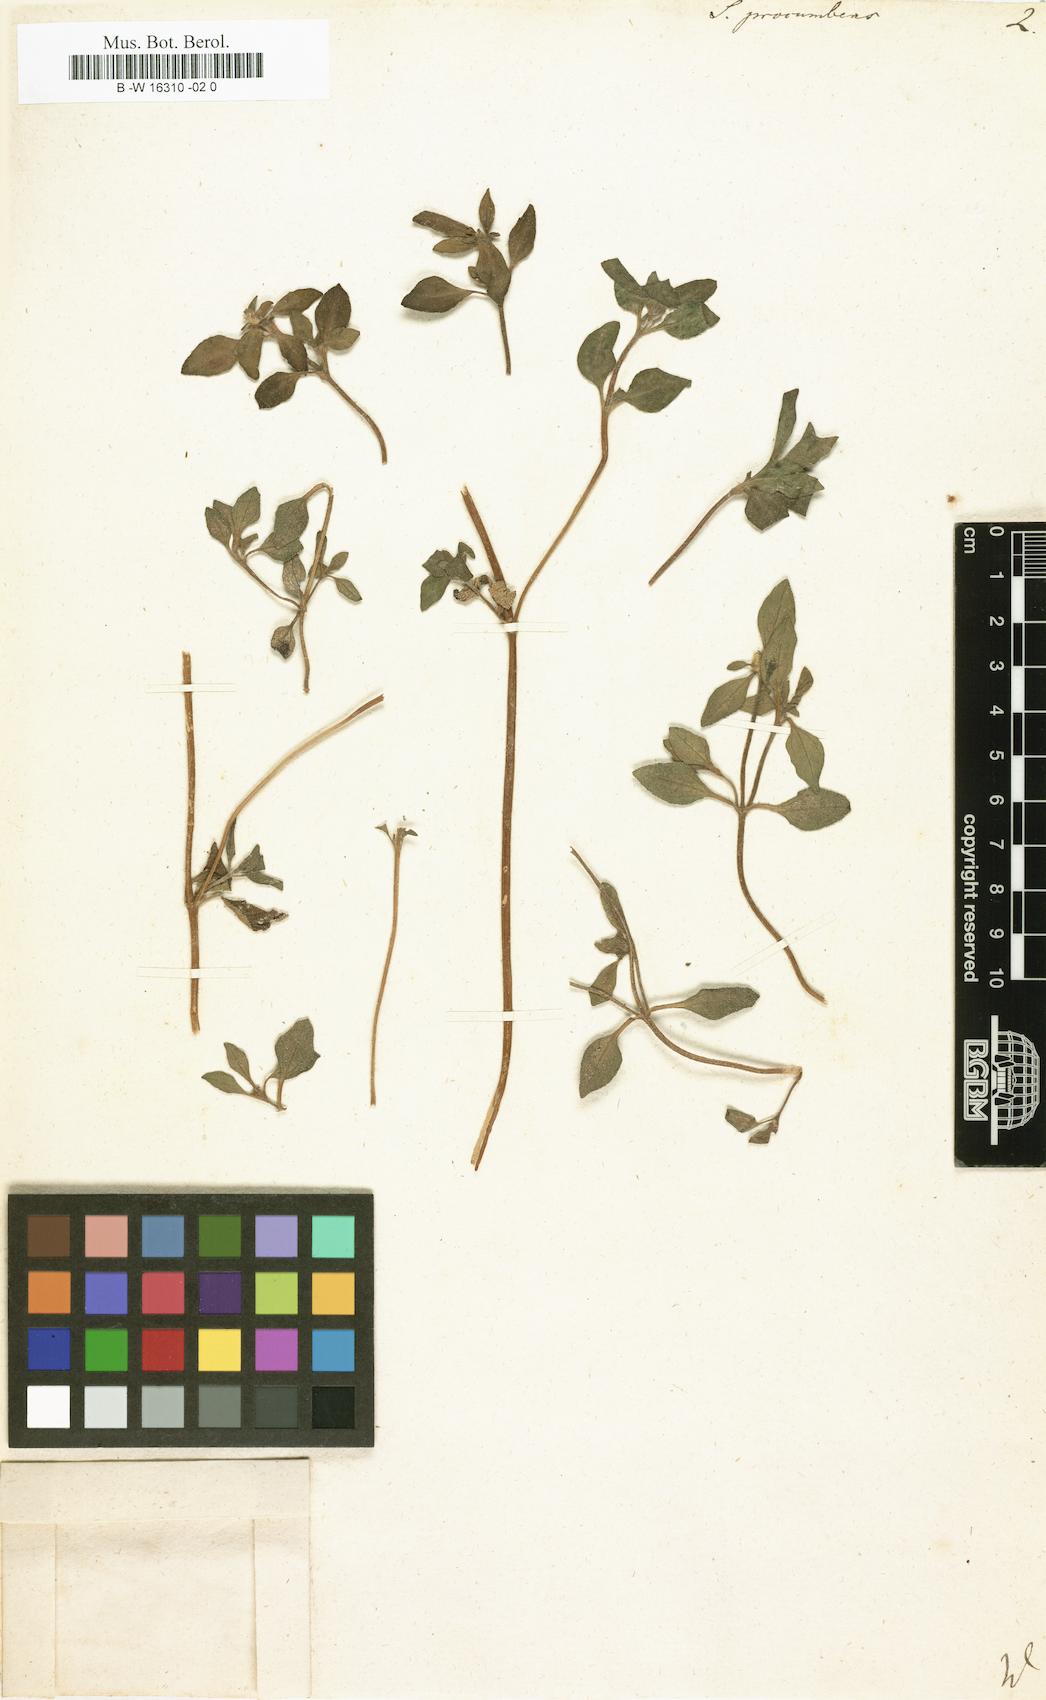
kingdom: Plantae
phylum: Tracheophyta
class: Magnoliopsida
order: Asterales
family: Asteraceae
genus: Sanvitalia
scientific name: Sanvitalia procumbens
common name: Mexican creeping zinnia
